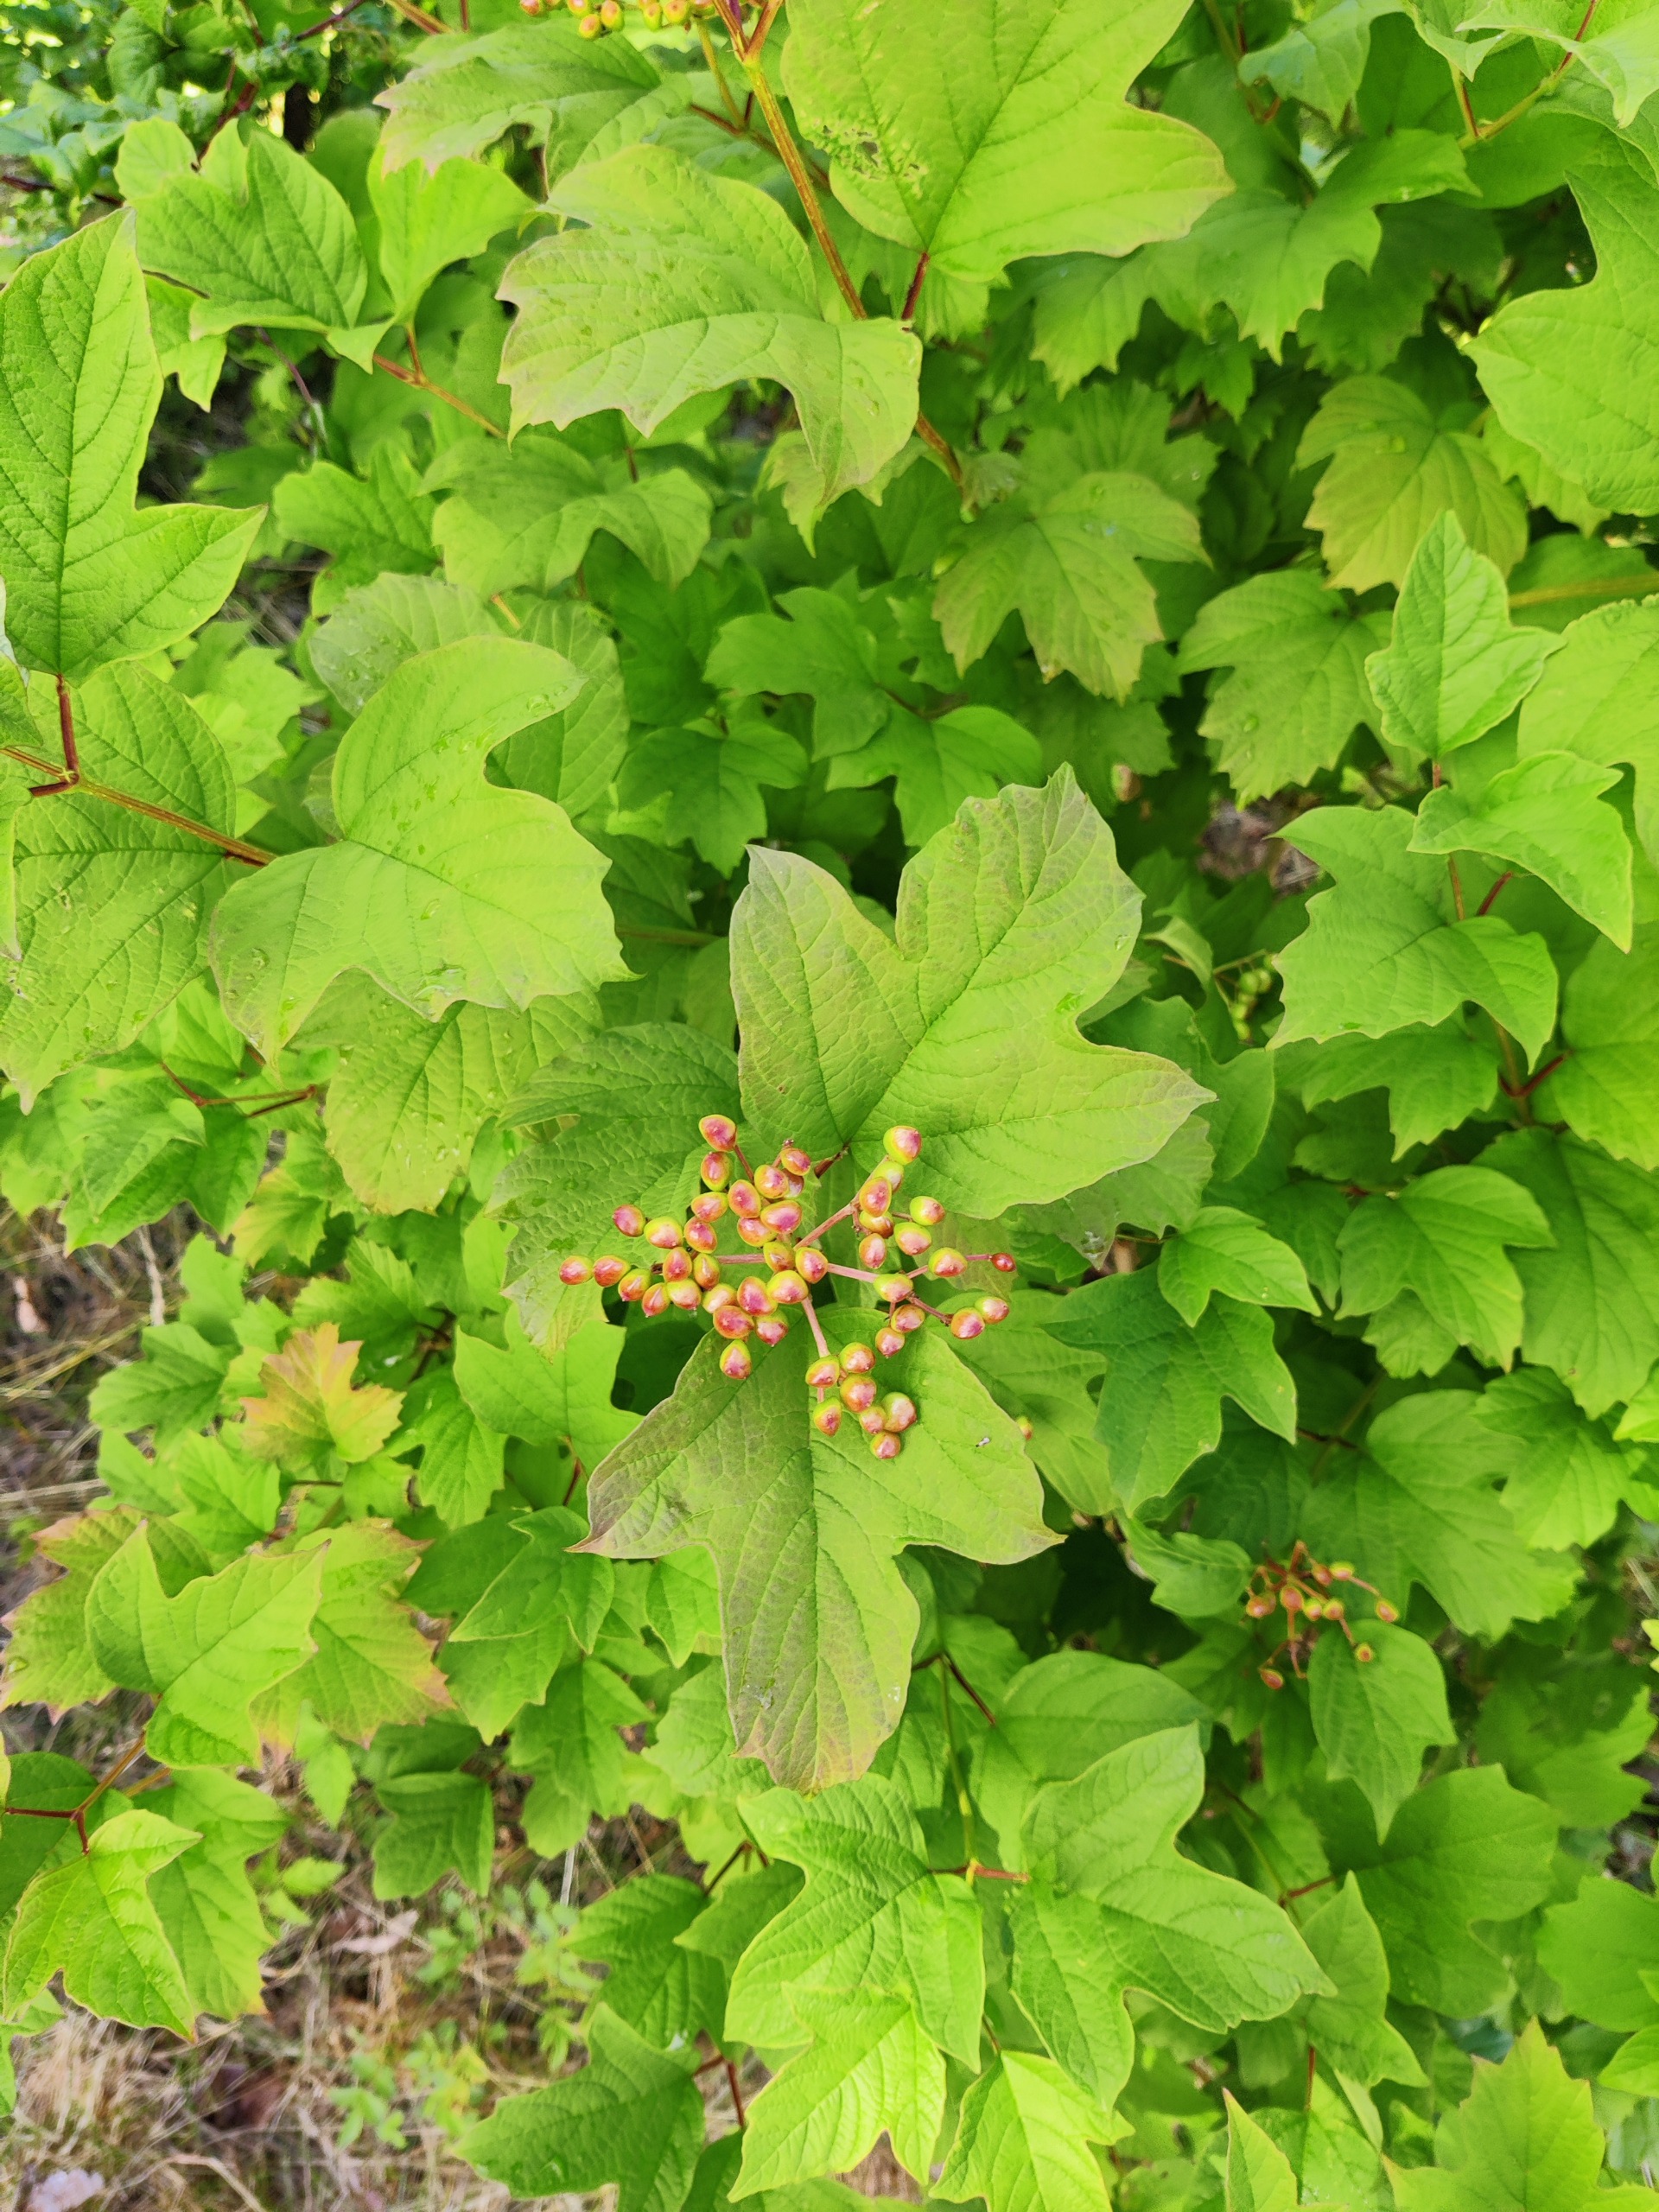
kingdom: Plantae
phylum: Tracheophyta
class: Magnoliopsida
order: Dipsacales
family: Viburnaceae
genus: Viburnum
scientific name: Viburnum opulus
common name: Kvalkved
